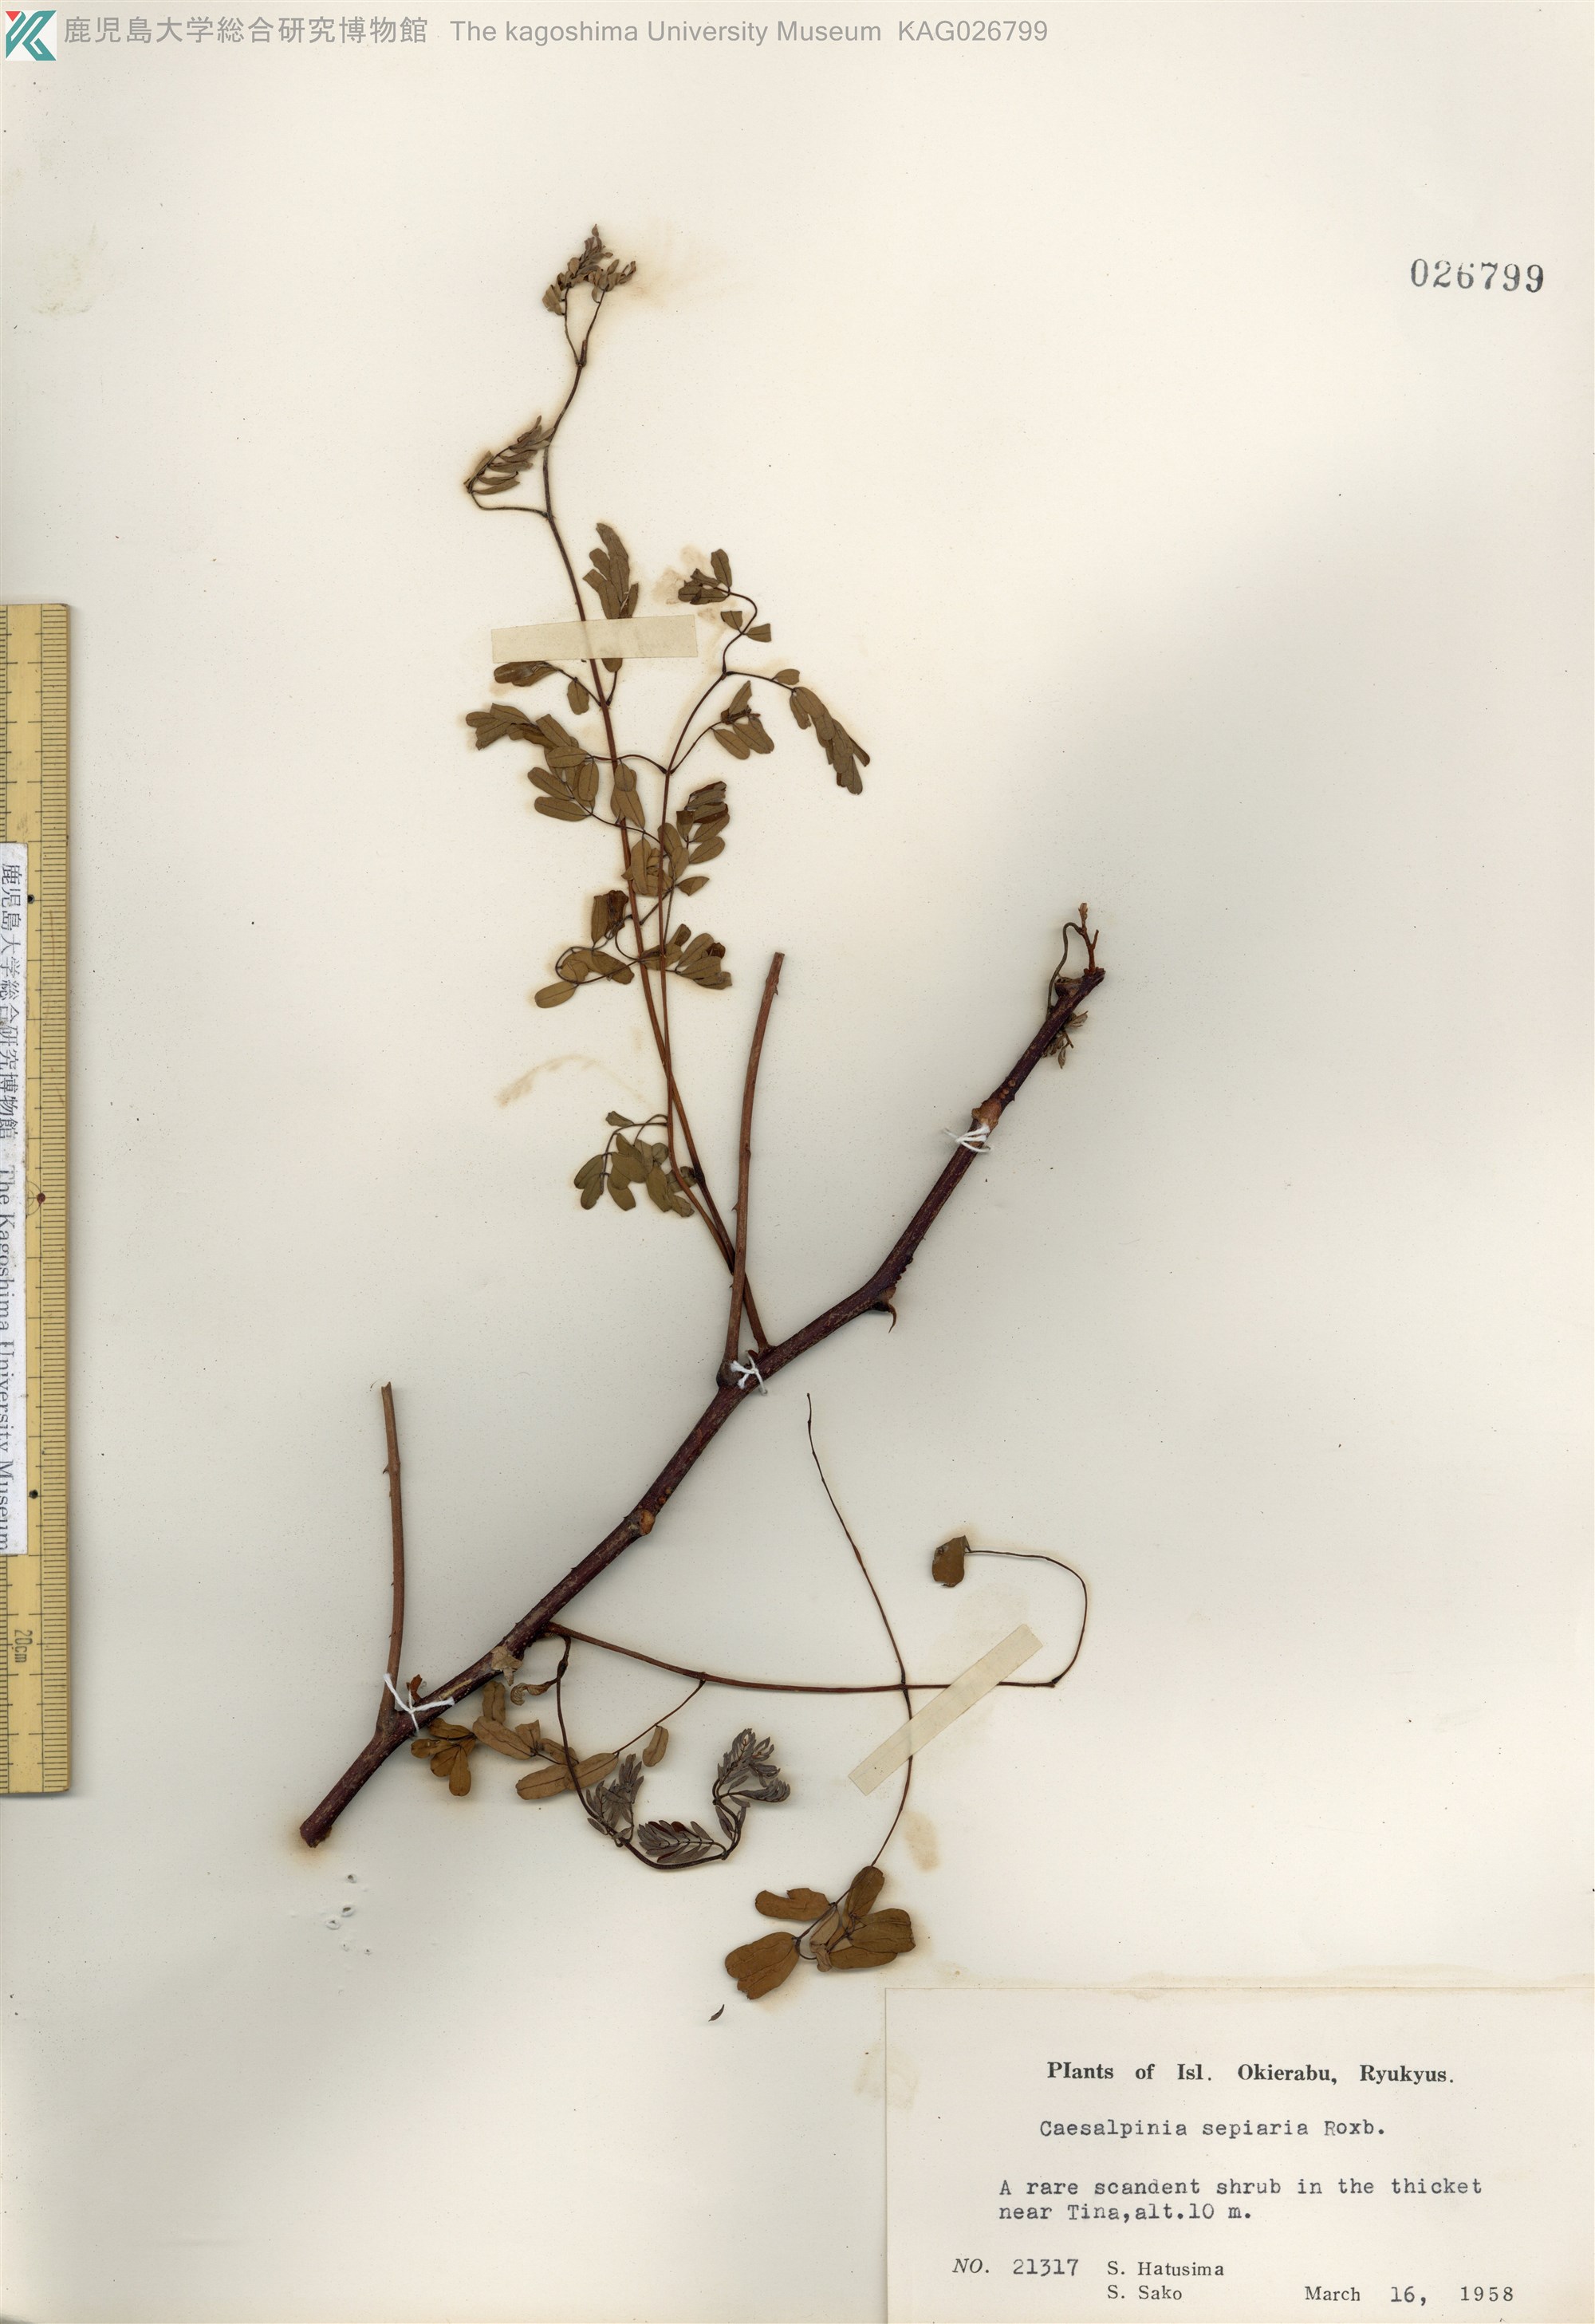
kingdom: Plantae
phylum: Tracheophyta
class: Magnoliopsida
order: Fabales
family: Fabaceae
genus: Biancaea
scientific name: Biancaea decapetala
